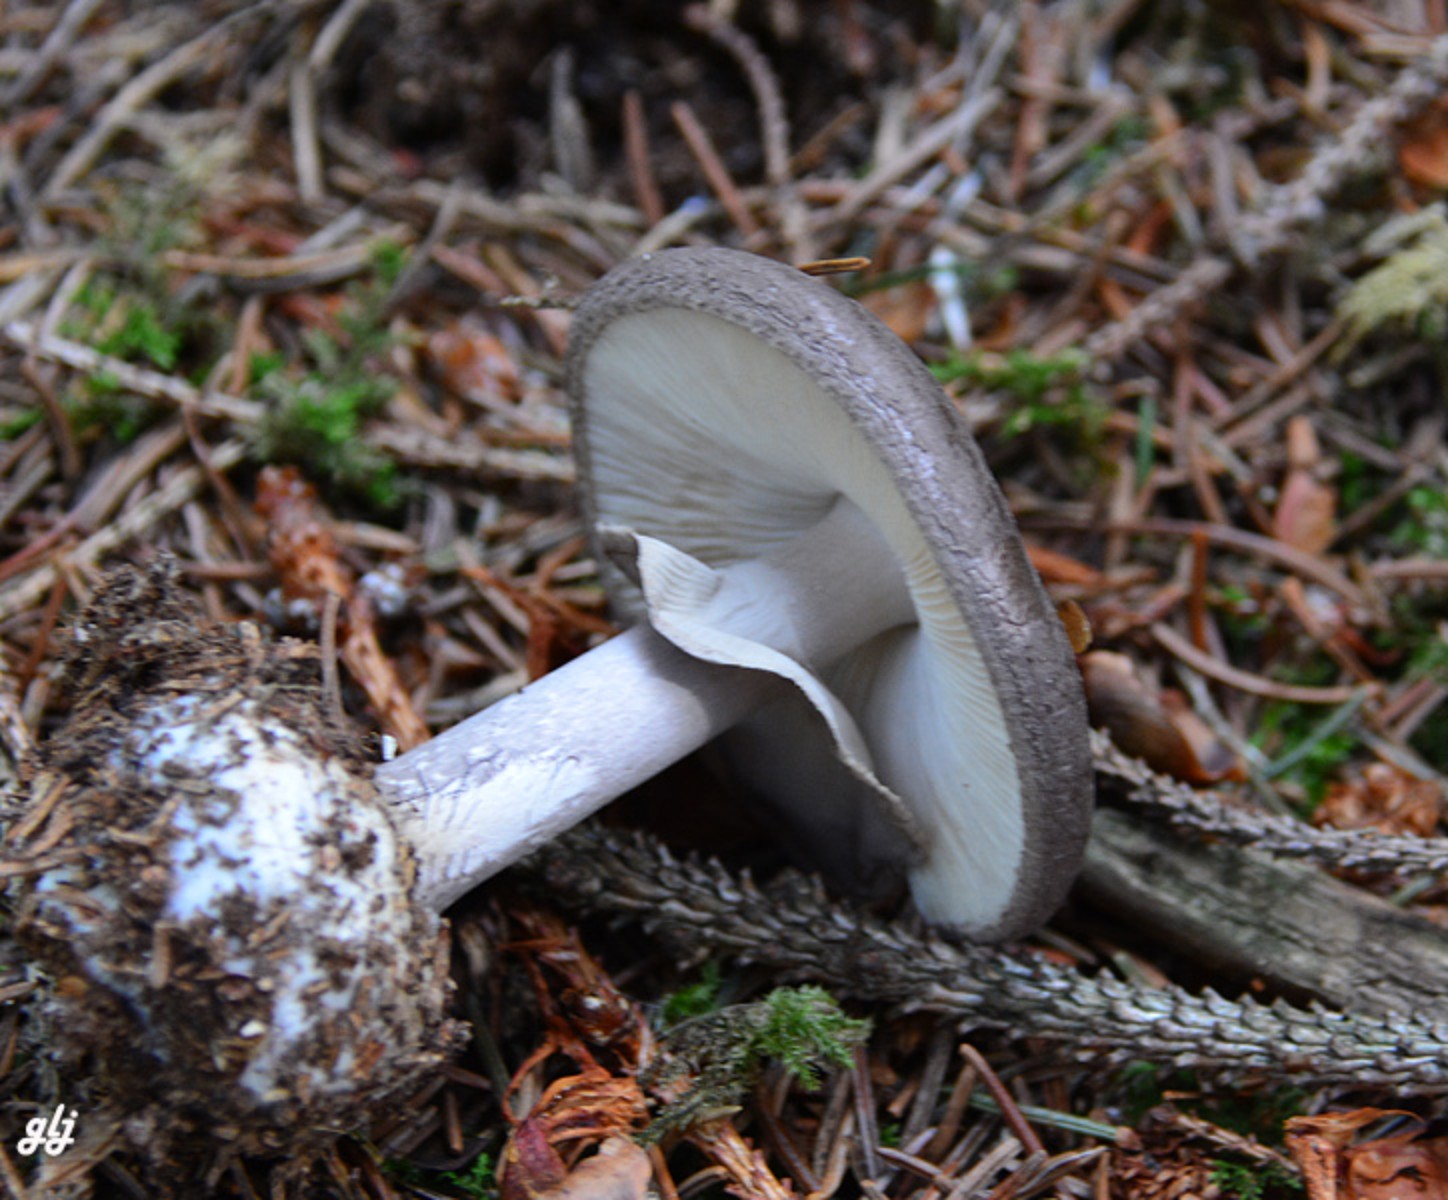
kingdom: Fungi
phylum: Basidiomycota
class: Agaricomycetes
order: Agaricales
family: Amanitaceae
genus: Amanita
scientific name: Amanita porphyria
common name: porfyr-fluesvamp
